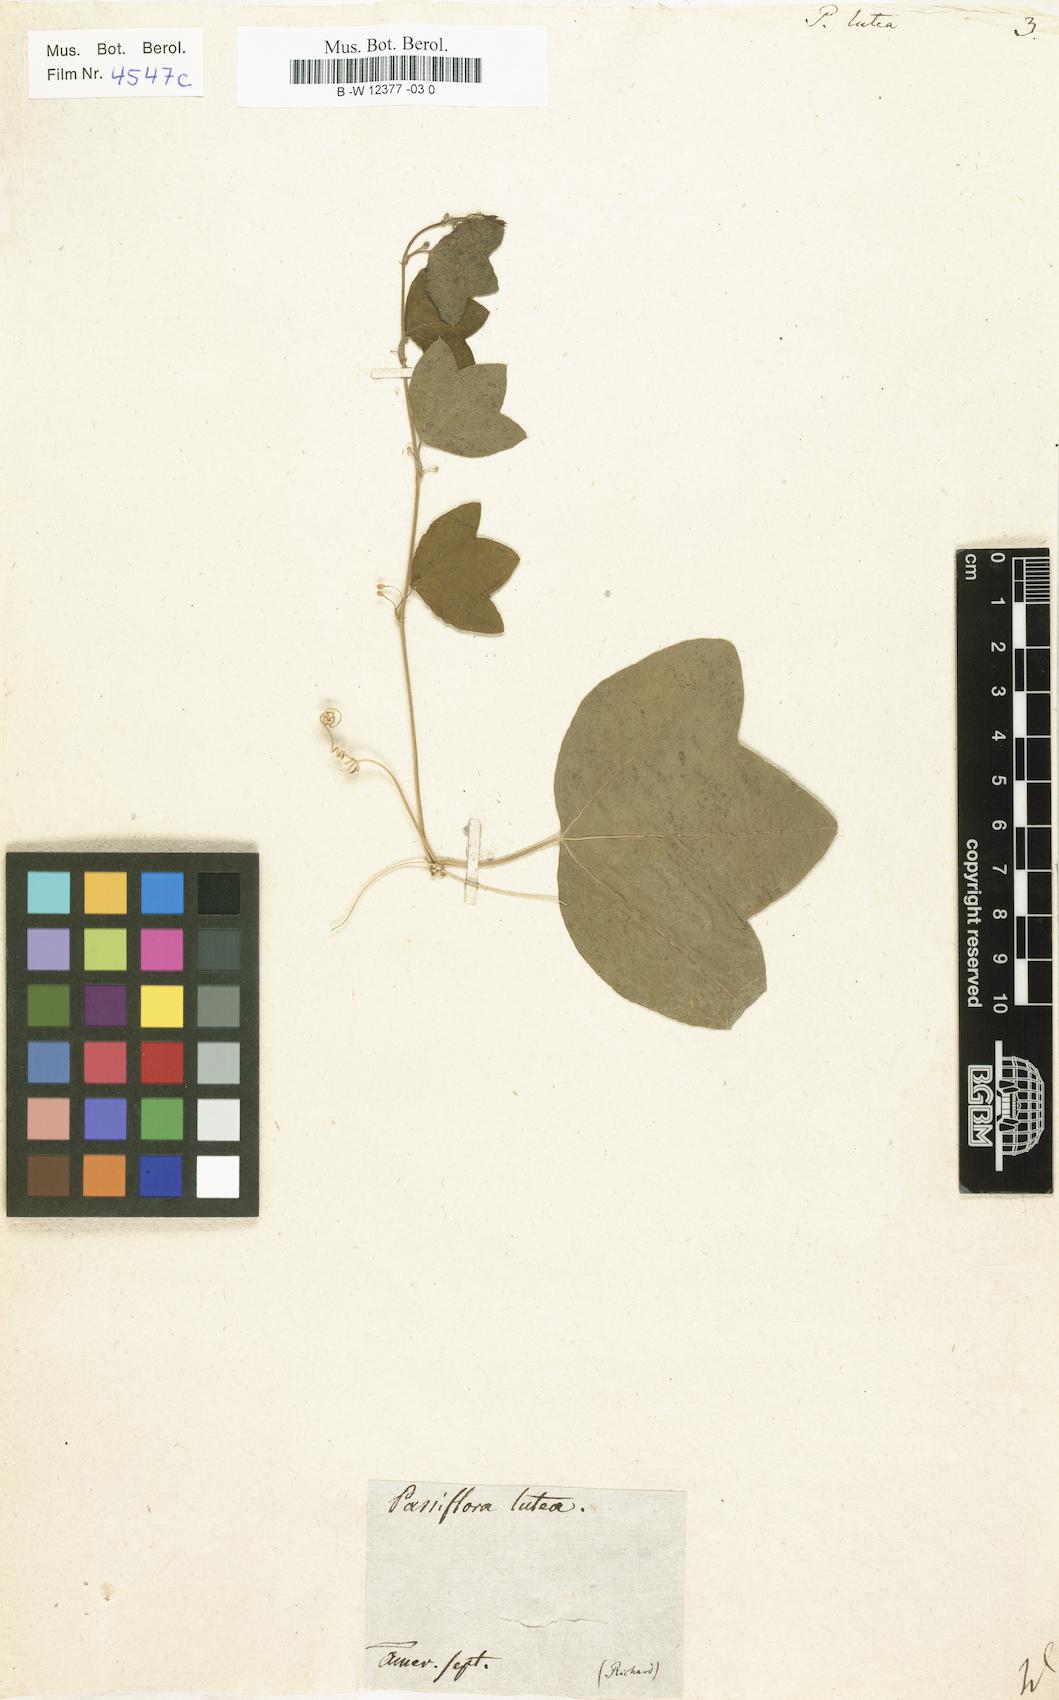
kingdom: Plantae
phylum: Tracheophyta
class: Magnoliopsida
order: Malpighiales
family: Passifloraceae
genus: Passiflora
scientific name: Passiflora lutea
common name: Yellow passionflower
